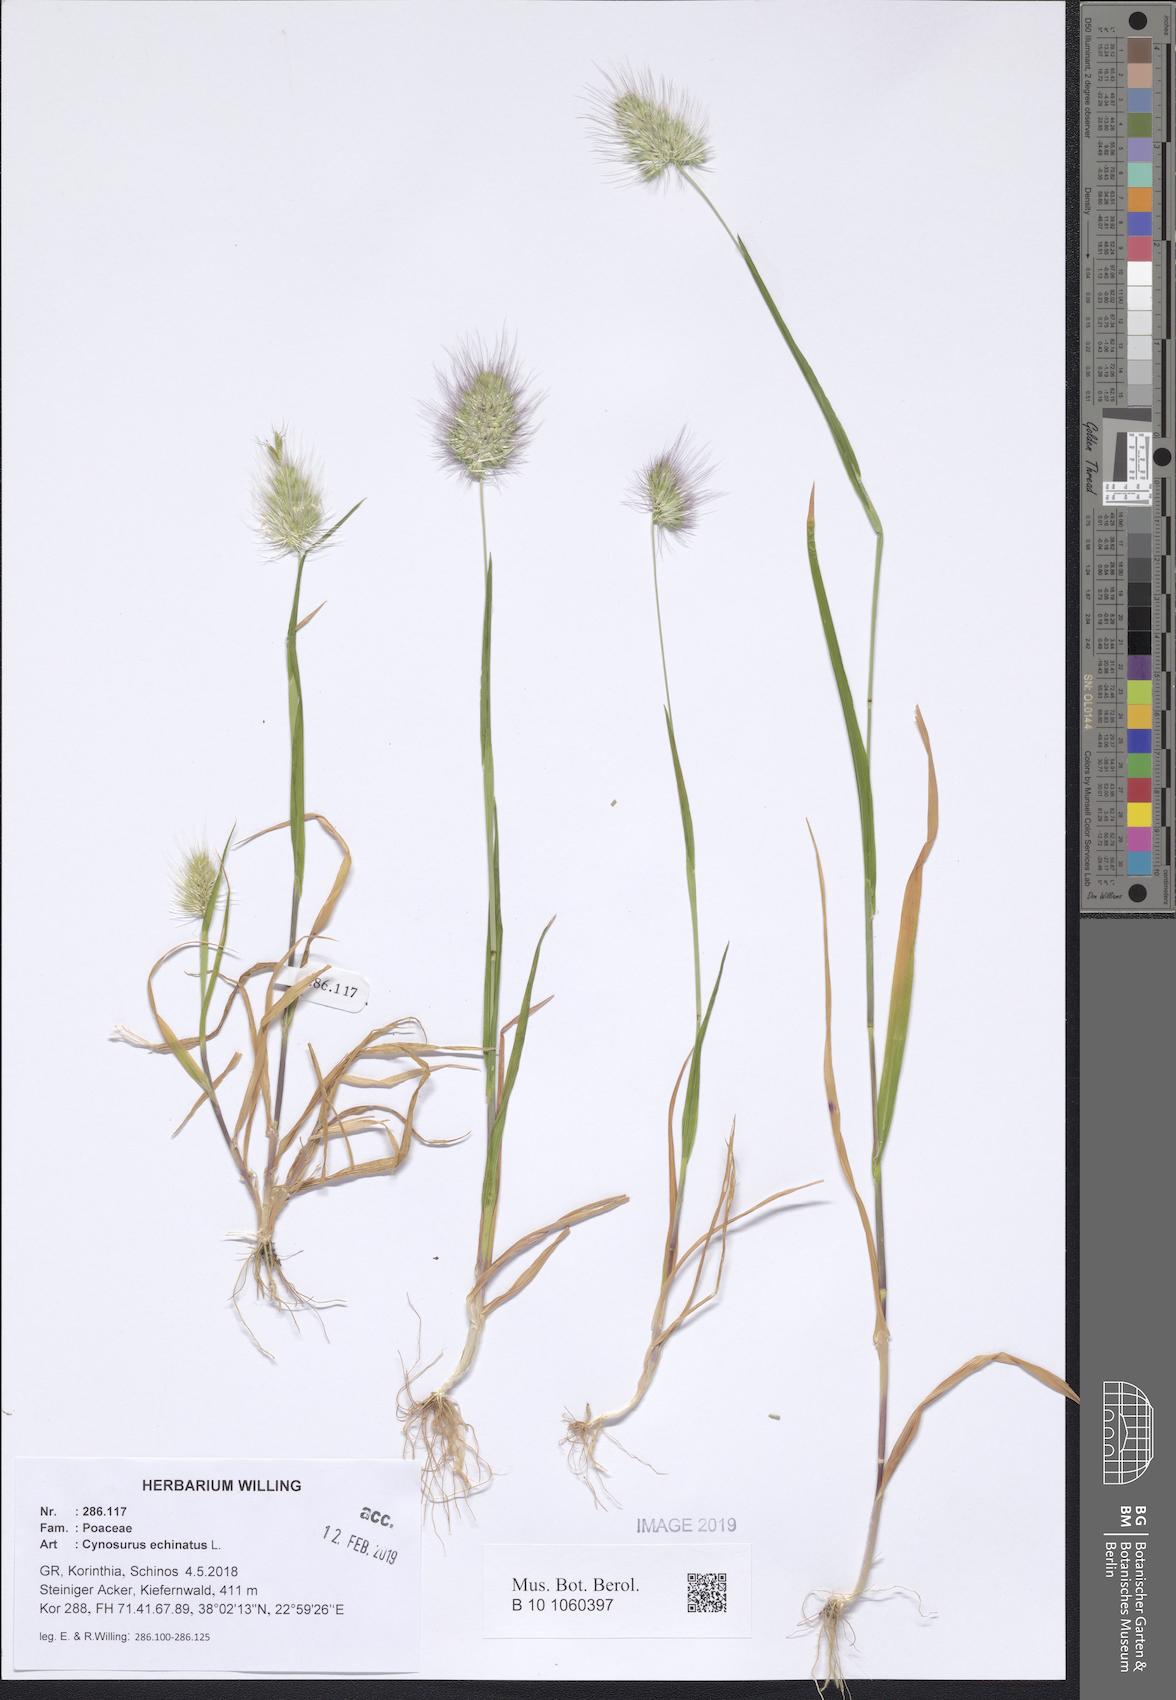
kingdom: Plantae
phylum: Tracheophyta
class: Liliopsida
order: Poales
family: Poaceae
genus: Cynosurus
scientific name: Cynosurus echinatus
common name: Rough dog's-tail
